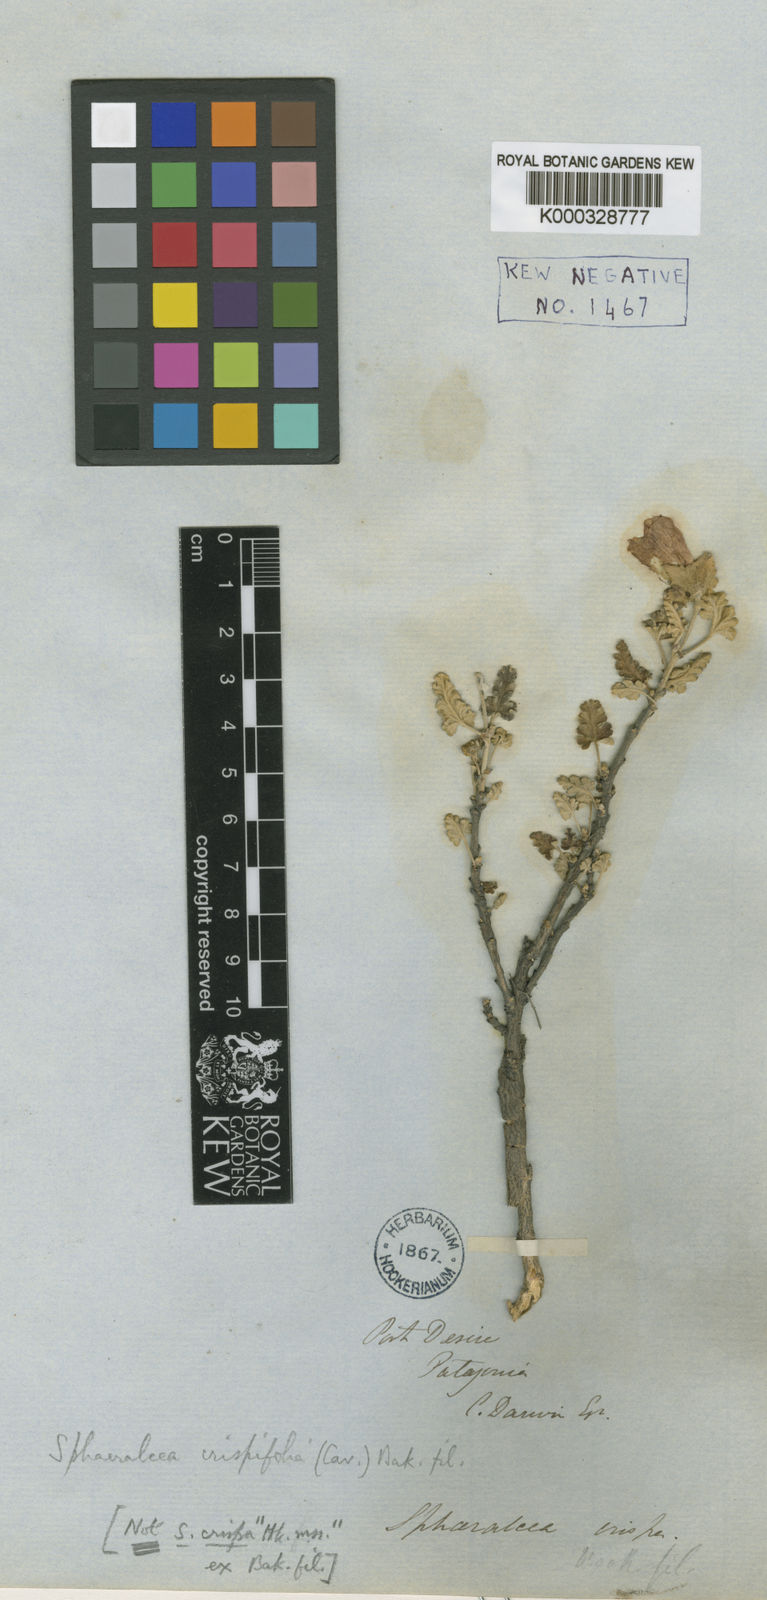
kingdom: Plantae
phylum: Tracheophyta
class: Magnoliopsida
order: Malvales
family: Malvaceae
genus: Neobaclea
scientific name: Neobaclea crispifolia
